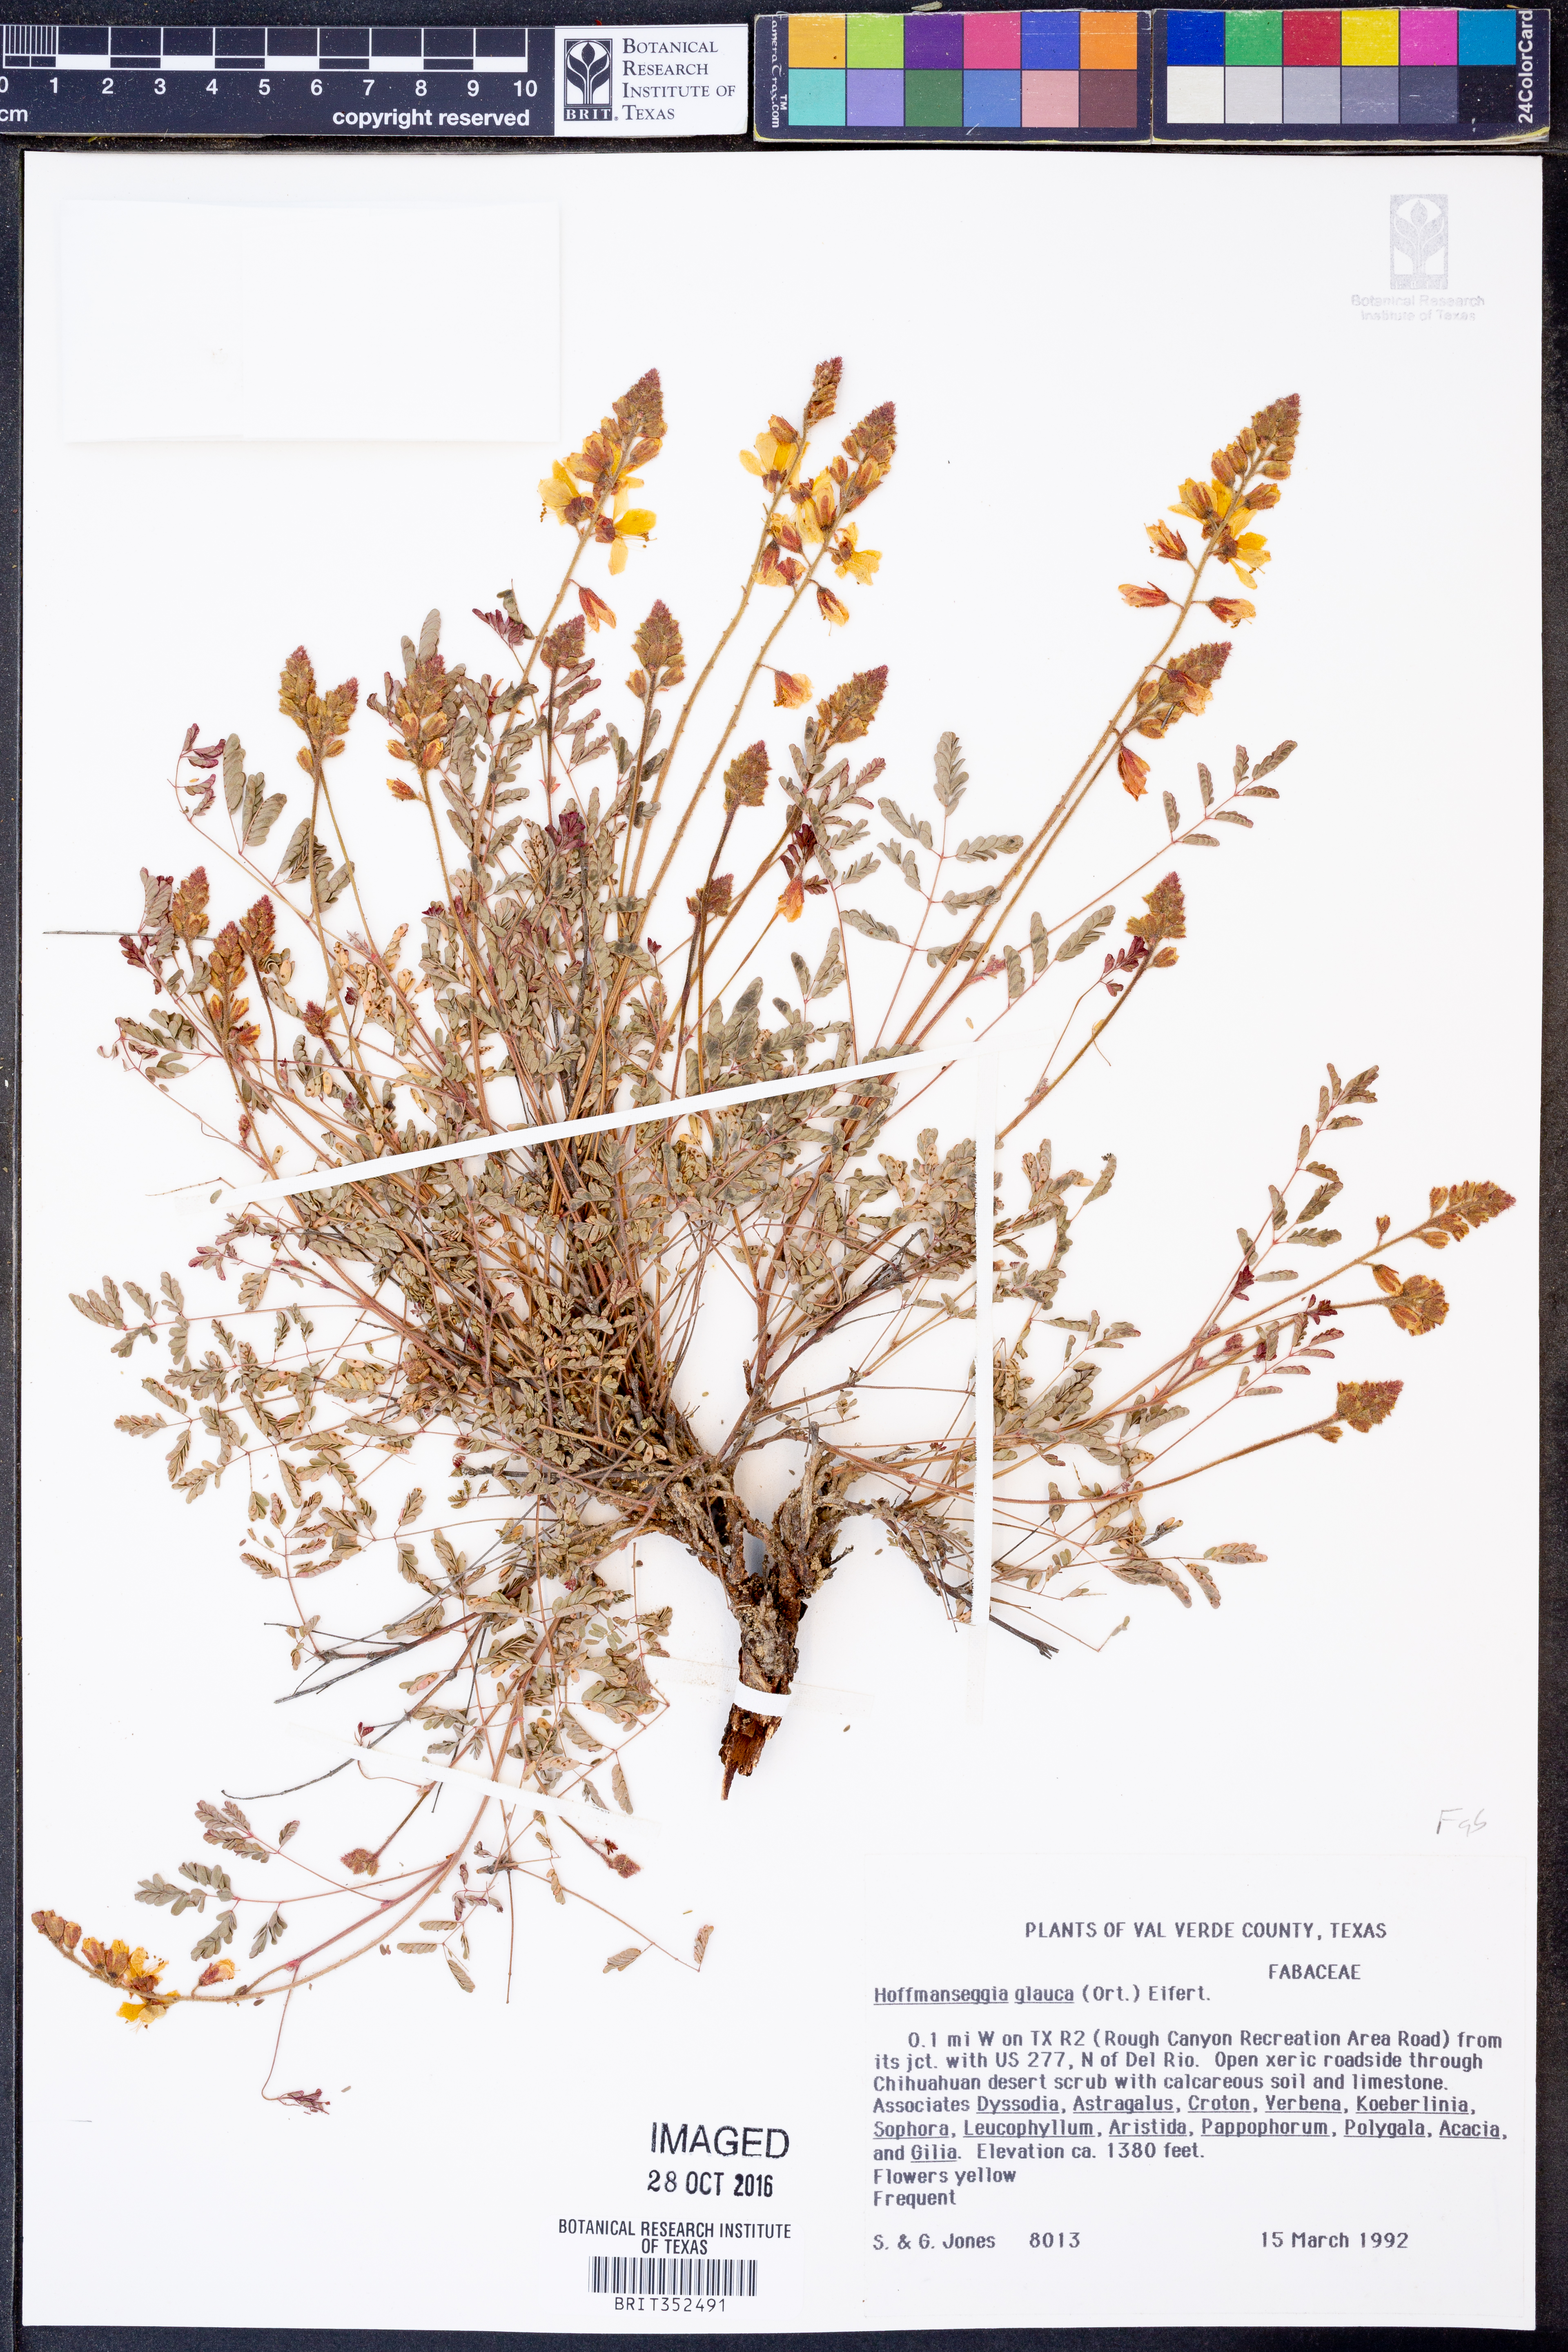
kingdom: Plantae
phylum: Tracheophyta
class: Magnoliopsida
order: Fabales
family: Fabaceae
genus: Hoffmannseggia
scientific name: Hoffmannseggia glauca
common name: Pignut
